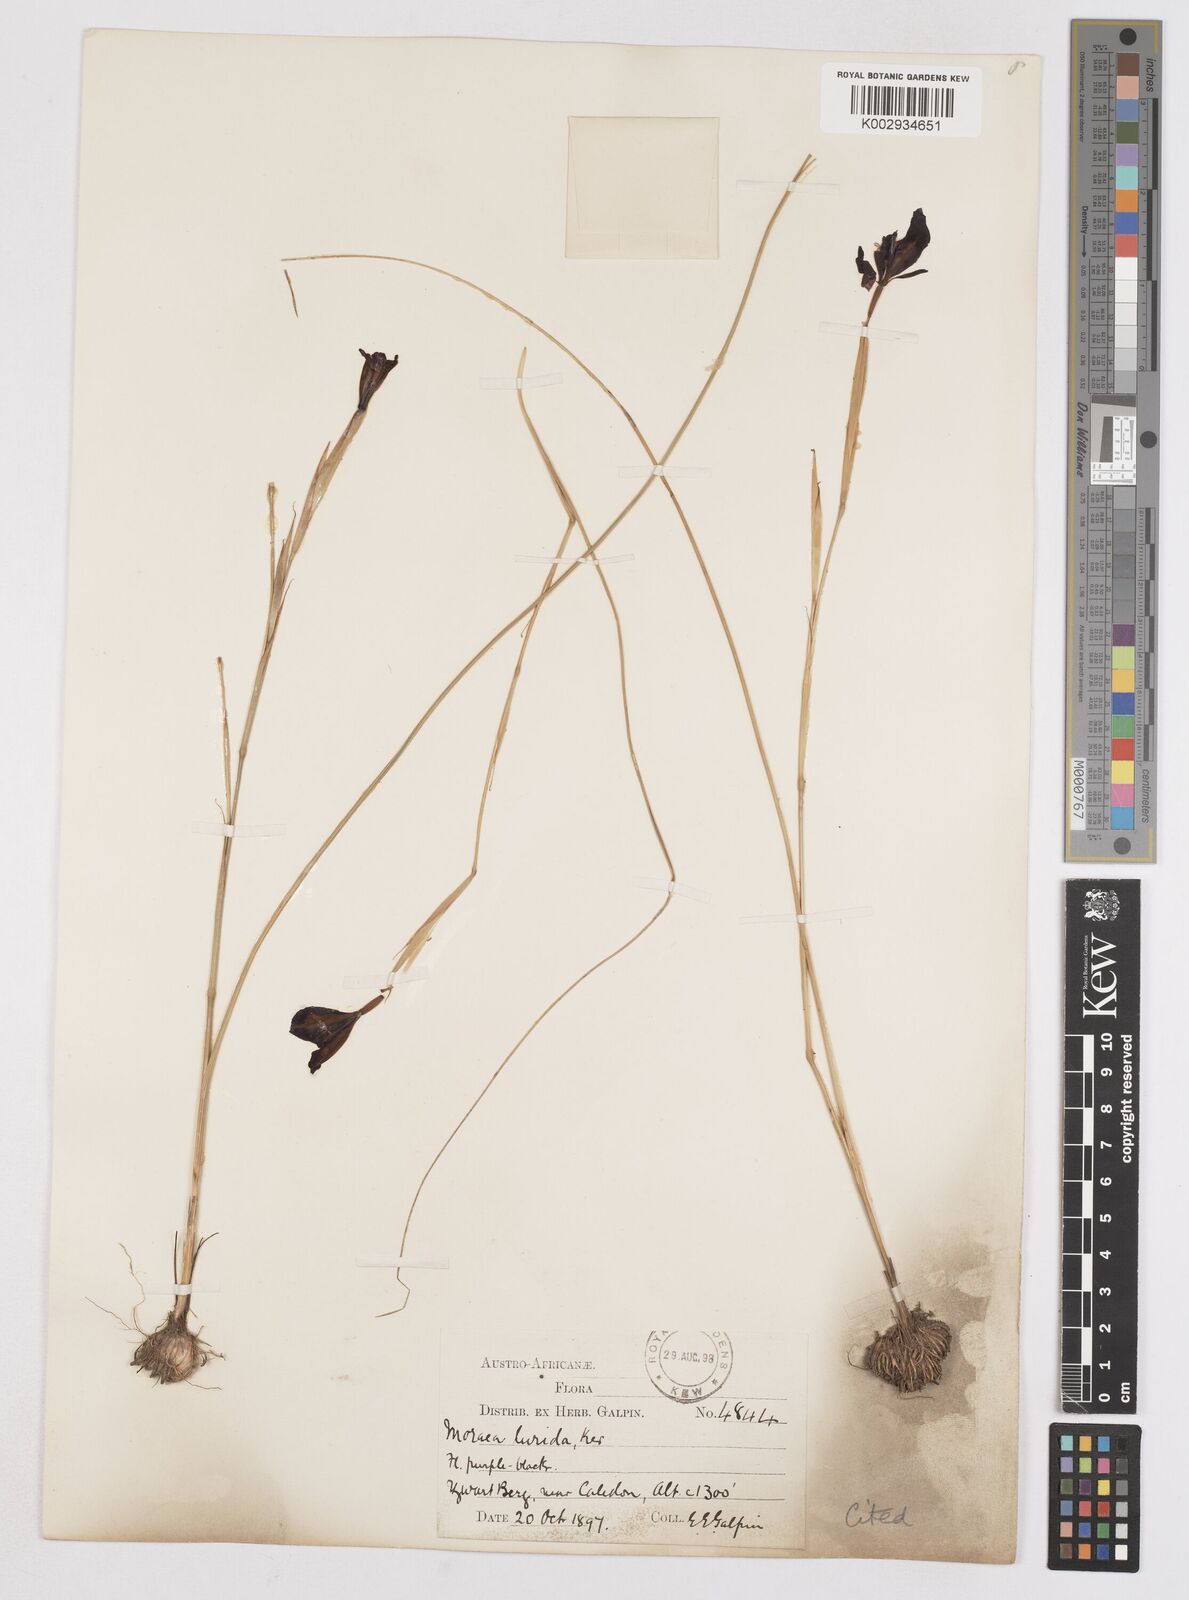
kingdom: Plantae
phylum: Tracheophyta
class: Liliopsida
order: Asparagales
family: Iridaceae
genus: Moraea
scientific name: Moraea lurida
